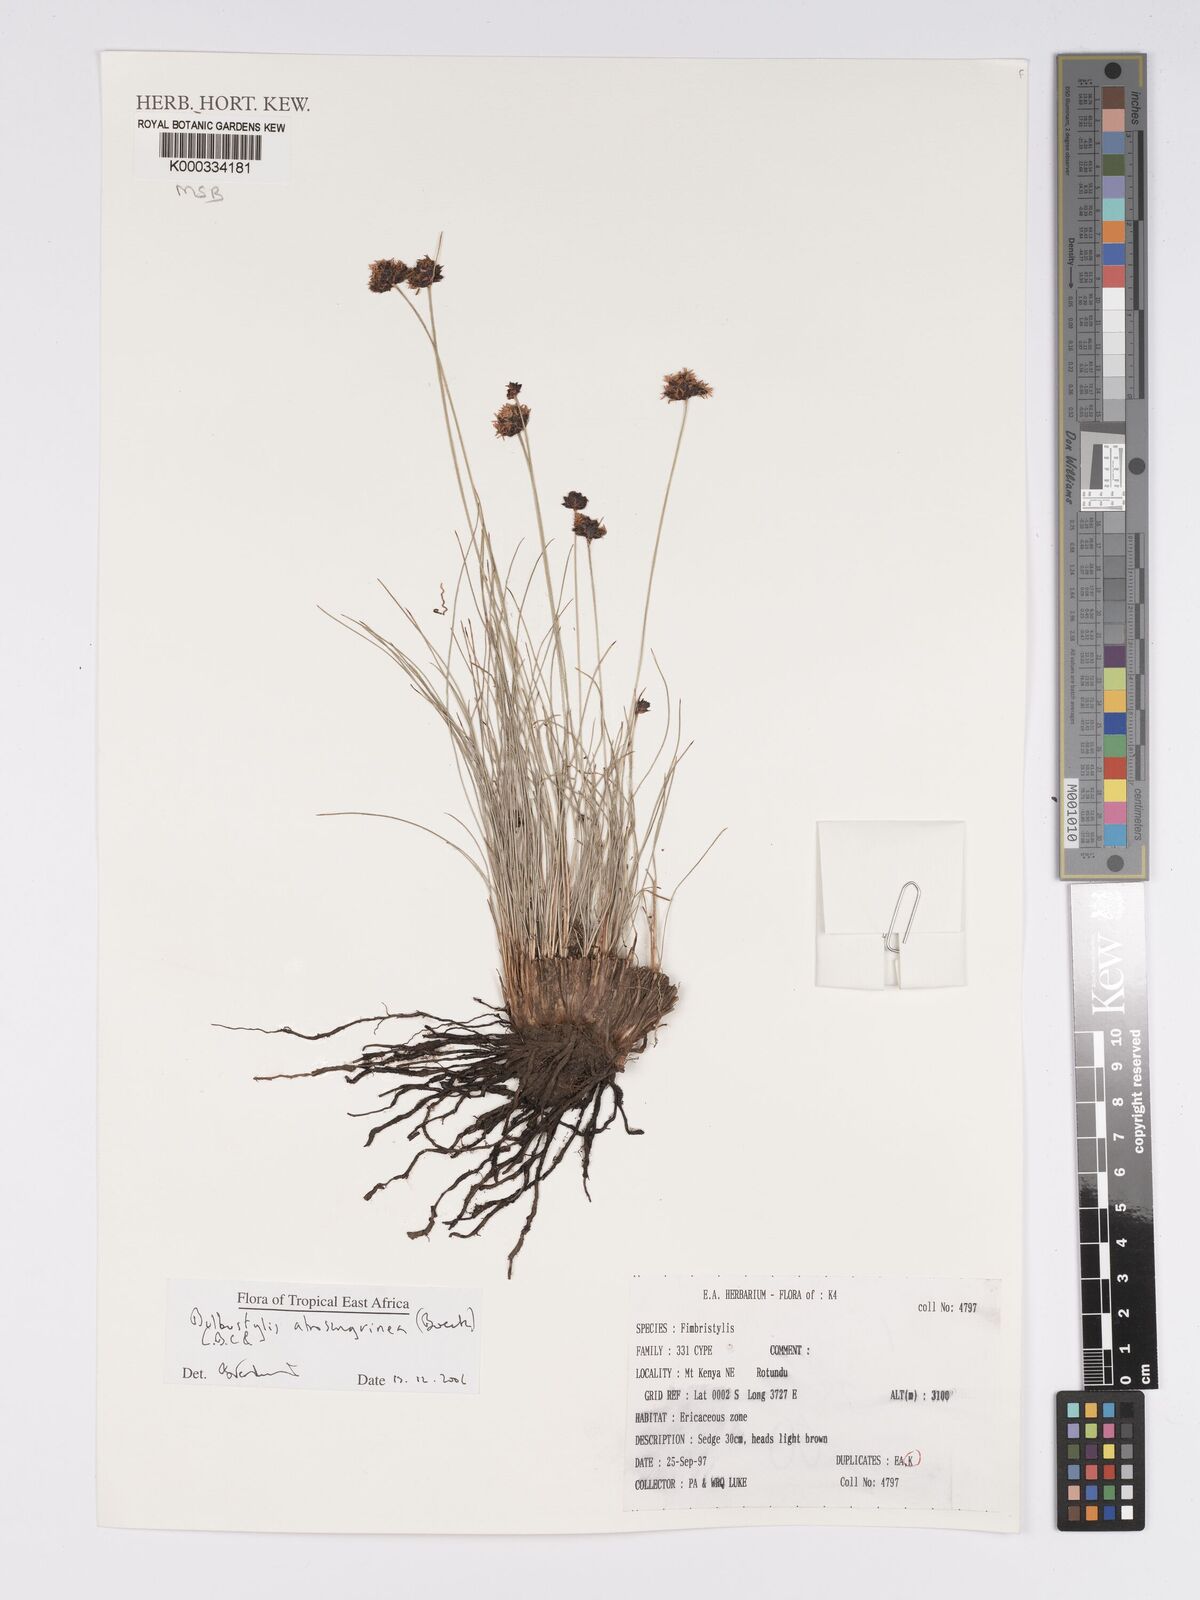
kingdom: Plantae
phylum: Tracheophyta
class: Liliopsida
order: Poales
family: Cyperaceae
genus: Bulbostylis
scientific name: Bulbostylis atrosanguinea
